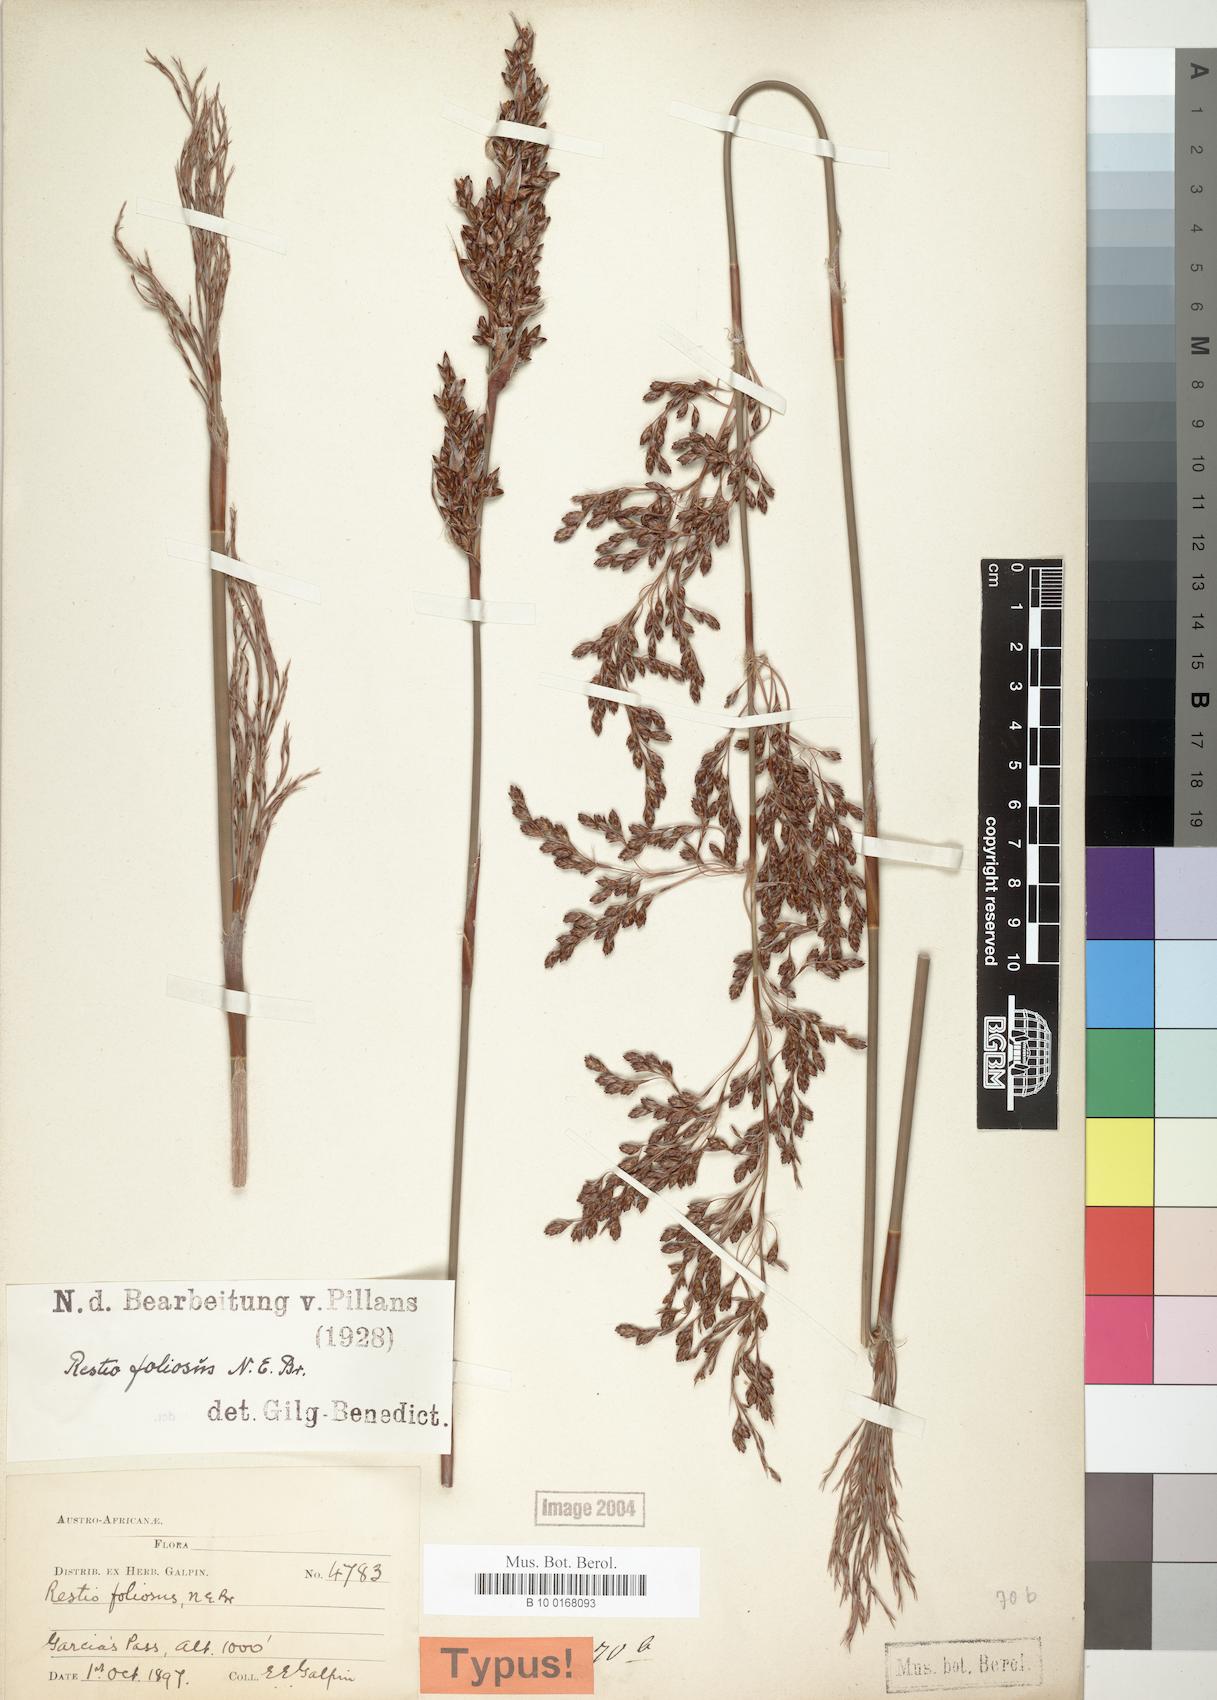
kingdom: Plantae
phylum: Tracheophyta
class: Liliopsida
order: Poales
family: Restionaceae
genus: Rhodocoma
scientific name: Rhodocoma foliosa
